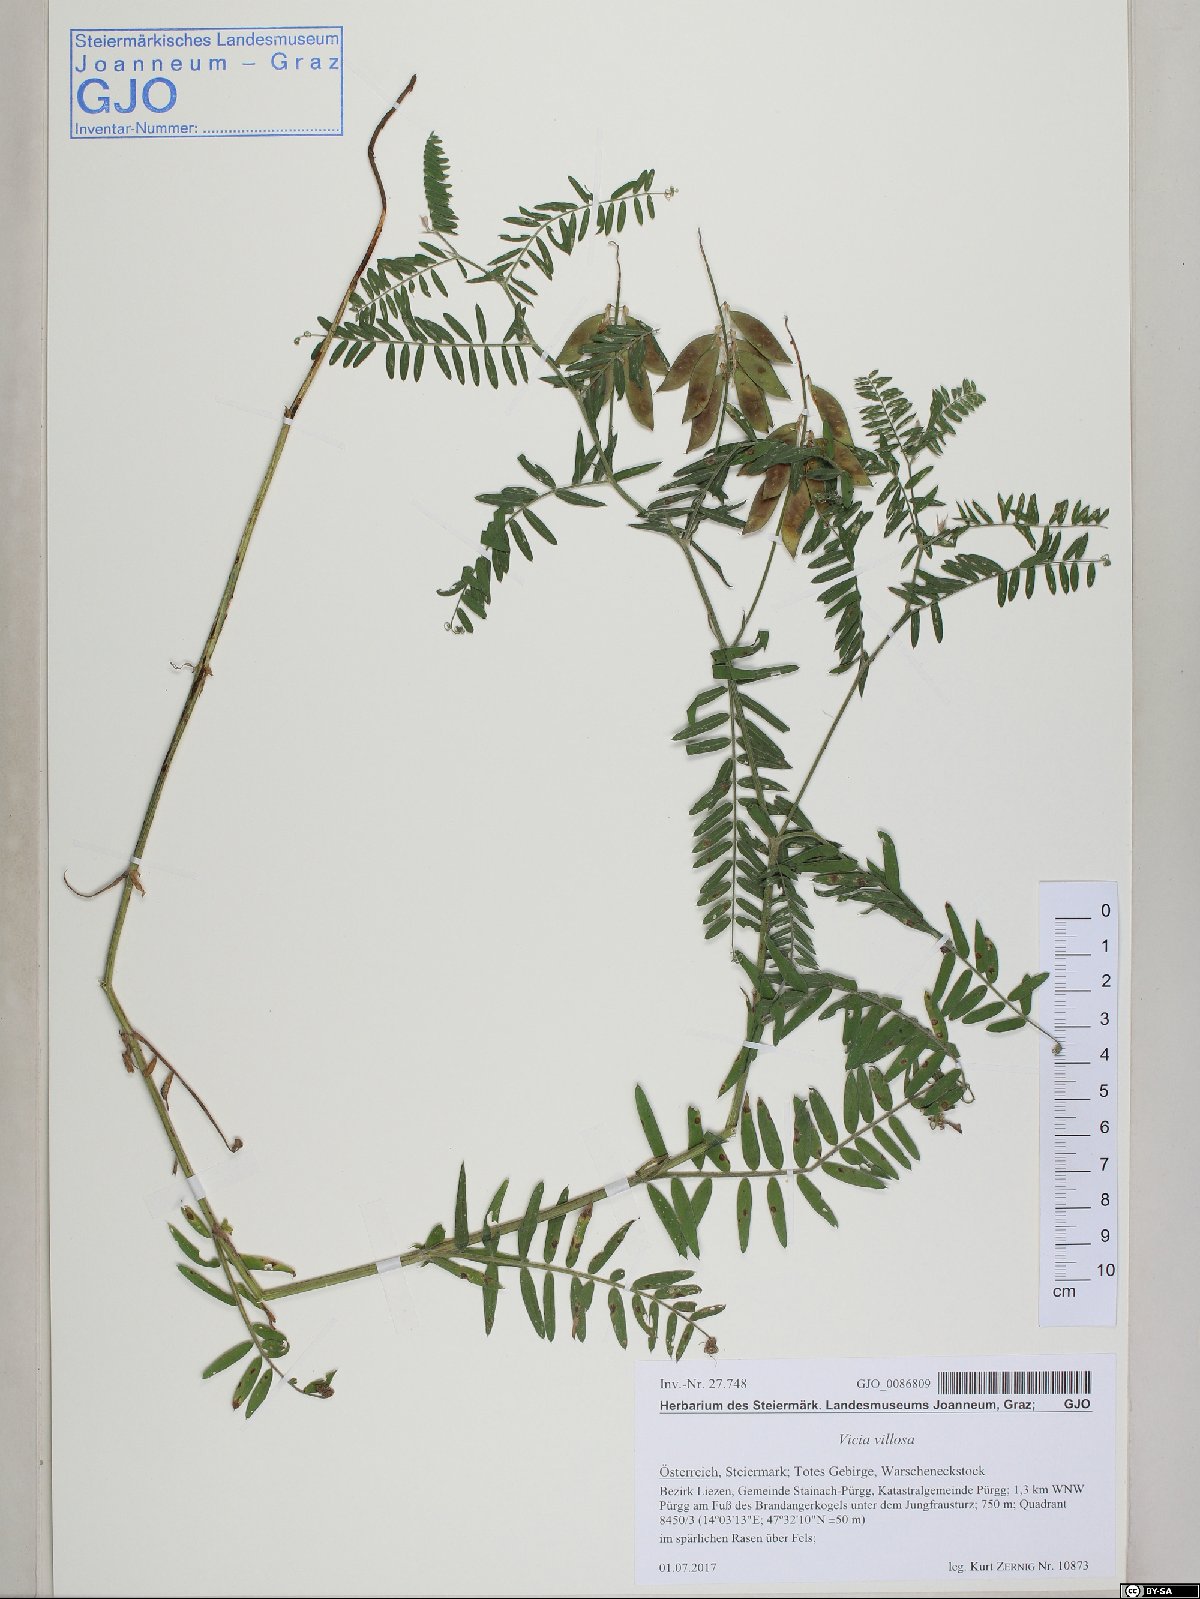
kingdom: Plantae
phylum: Tracheophyta
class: Magnoliopsida
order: Fabales
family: Fabaceae
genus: Vicia
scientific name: Vicia villosa
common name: Fodder vetch
